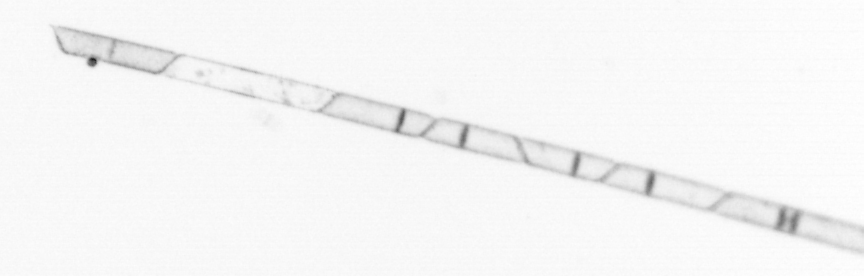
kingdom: Chromista
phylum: Ochrophyta
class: Bacillariophyceae
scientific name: Bacillariophyceae
